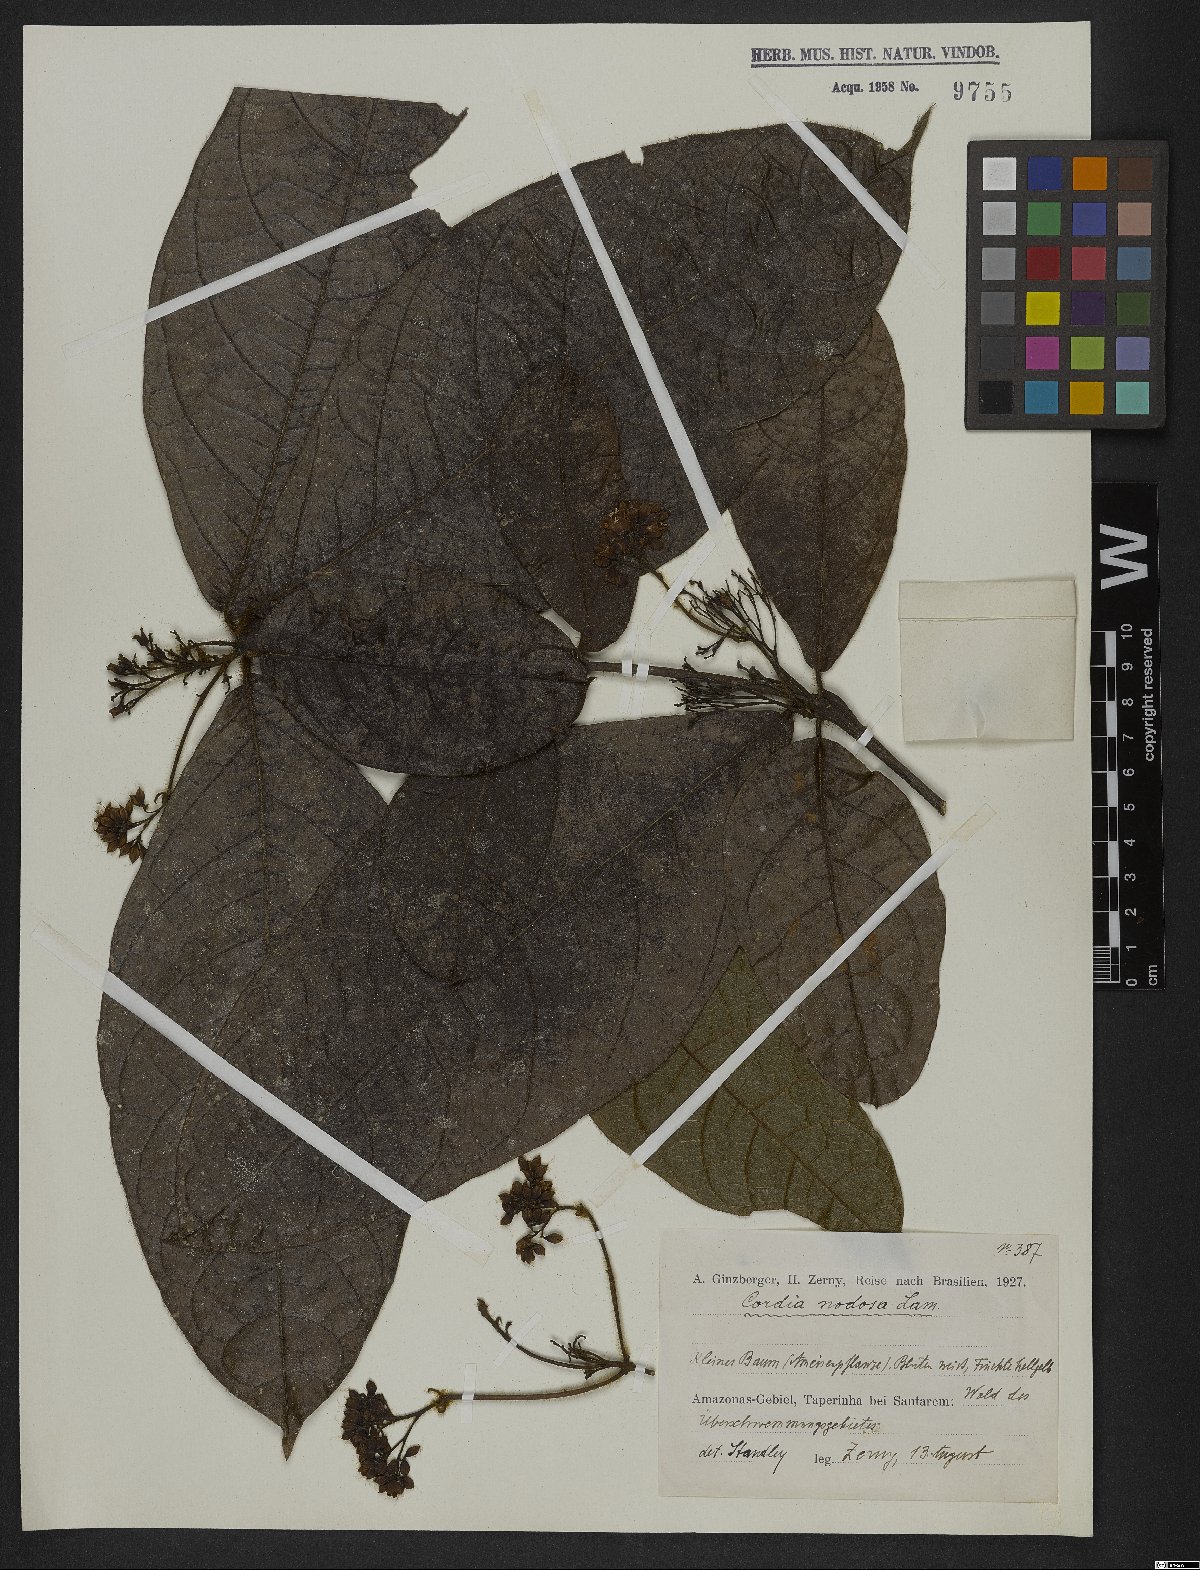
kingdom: Plantae
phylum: Tracheophyta
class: Magnoliopsida
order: Boraginales
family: Cordiaceae
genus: Cordia
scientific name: Cordia nodosa
